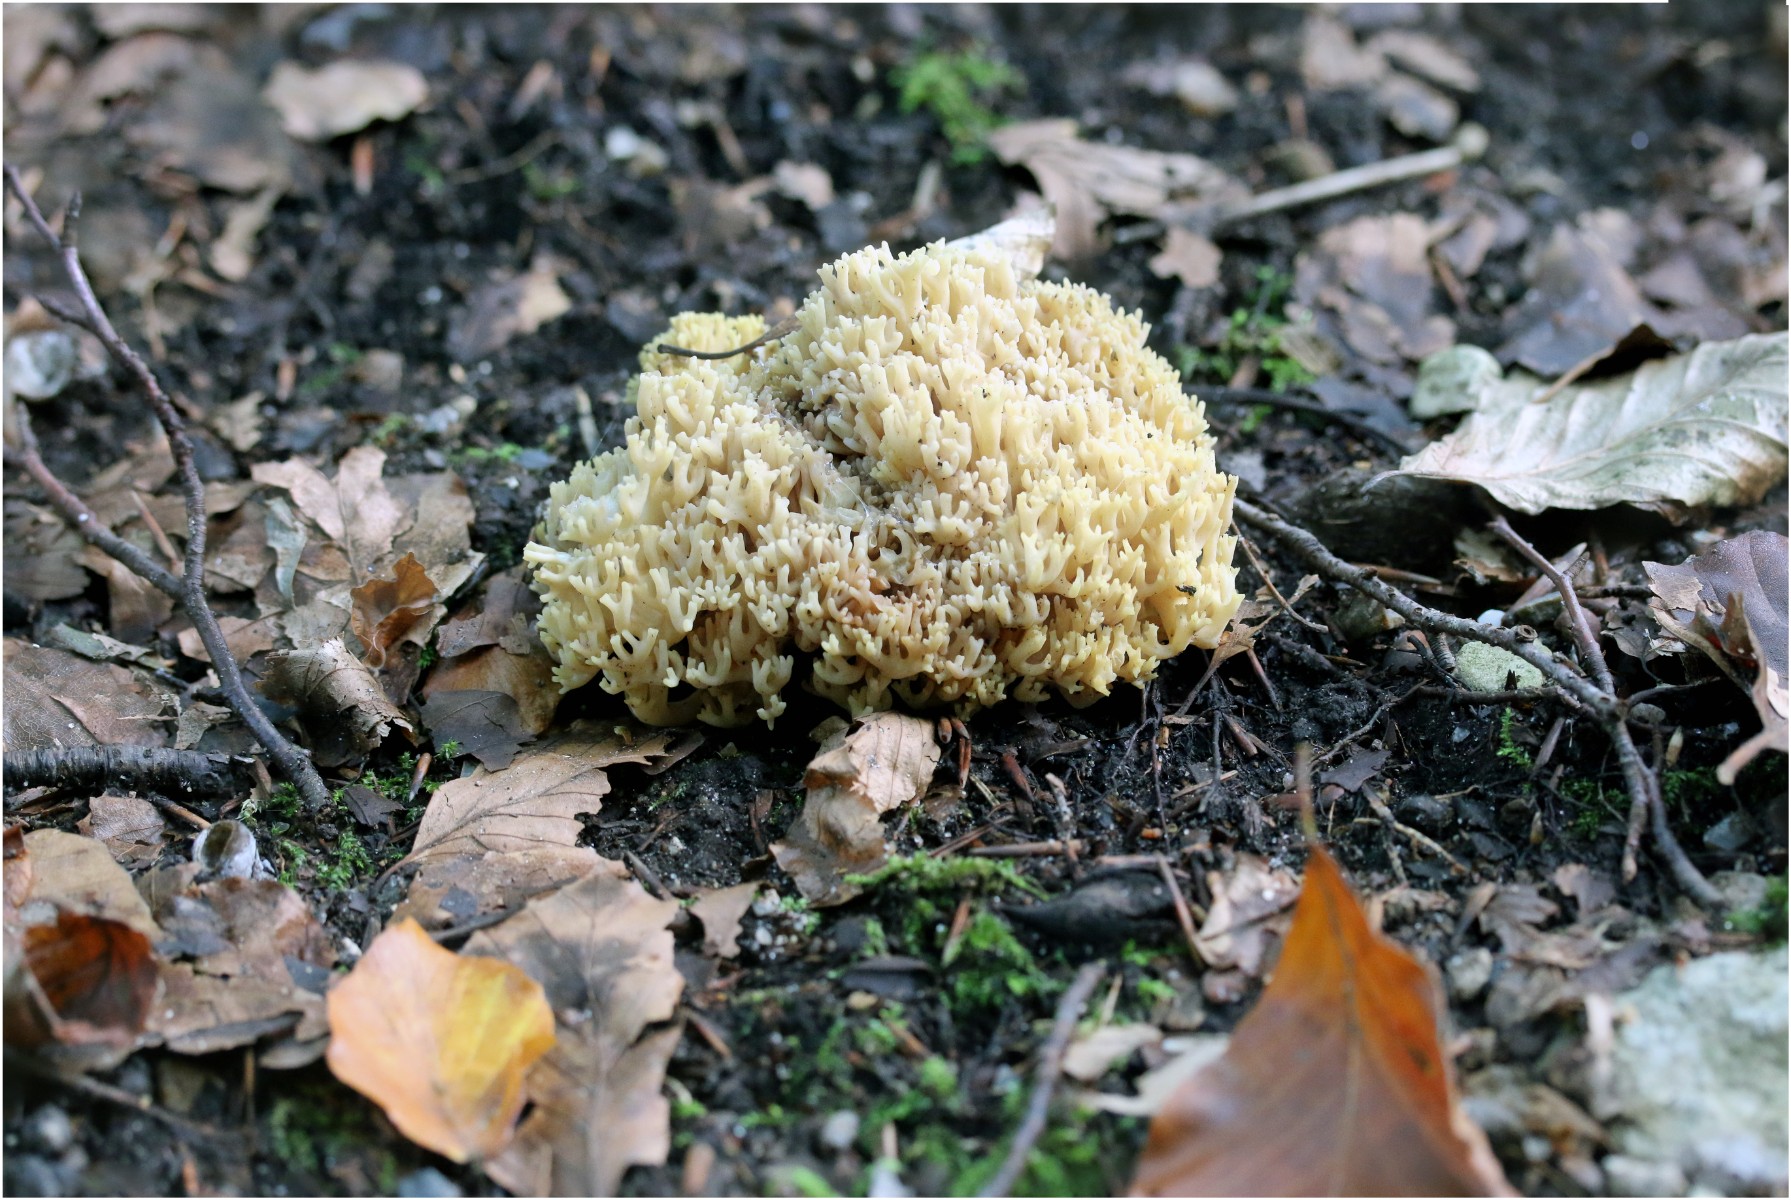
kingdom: Fungi
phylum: Basidiomycota
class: Agaricomycetes
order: Gomphales
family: Gomphaceae
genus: Ramaria
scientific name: Ramaria
